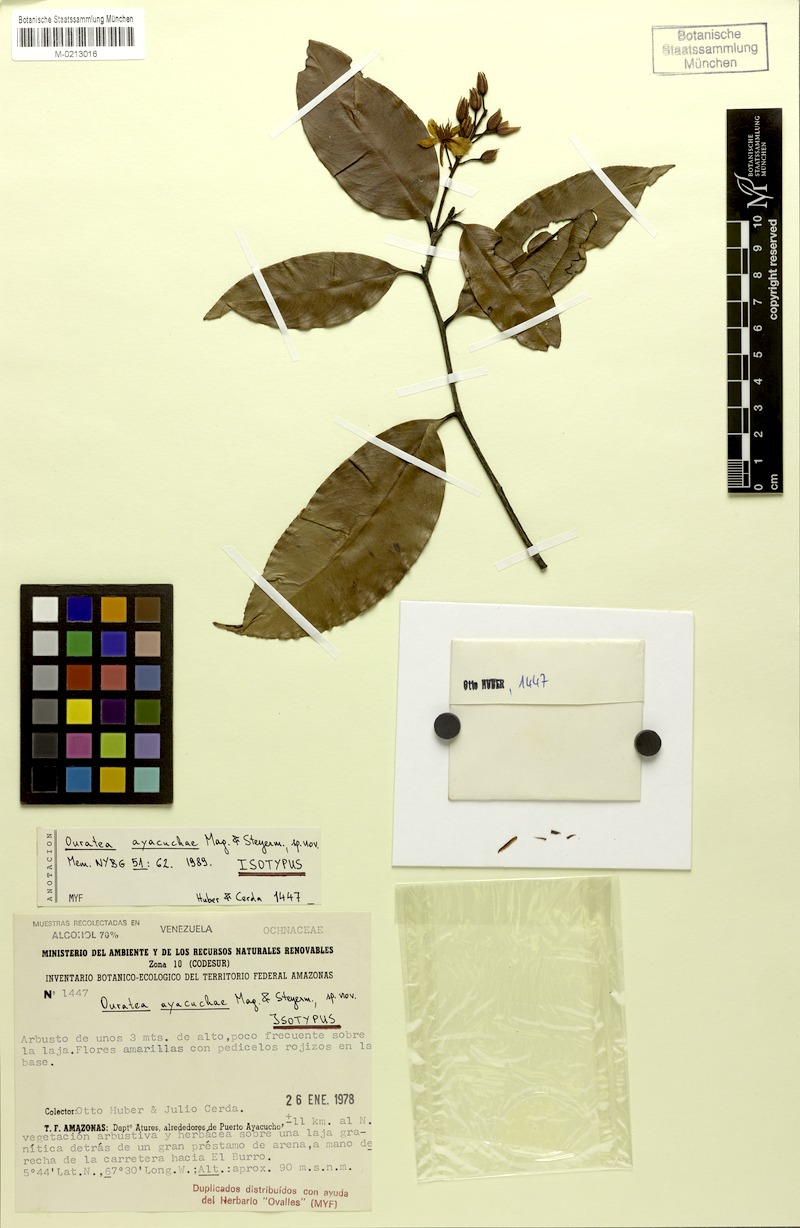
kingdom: Plantae
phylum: Tracheophyta
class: Magnoliopsida
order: Malpighiales
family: Ochnaceae
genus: Ouratea
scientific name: Ouratea chaffanjonii
